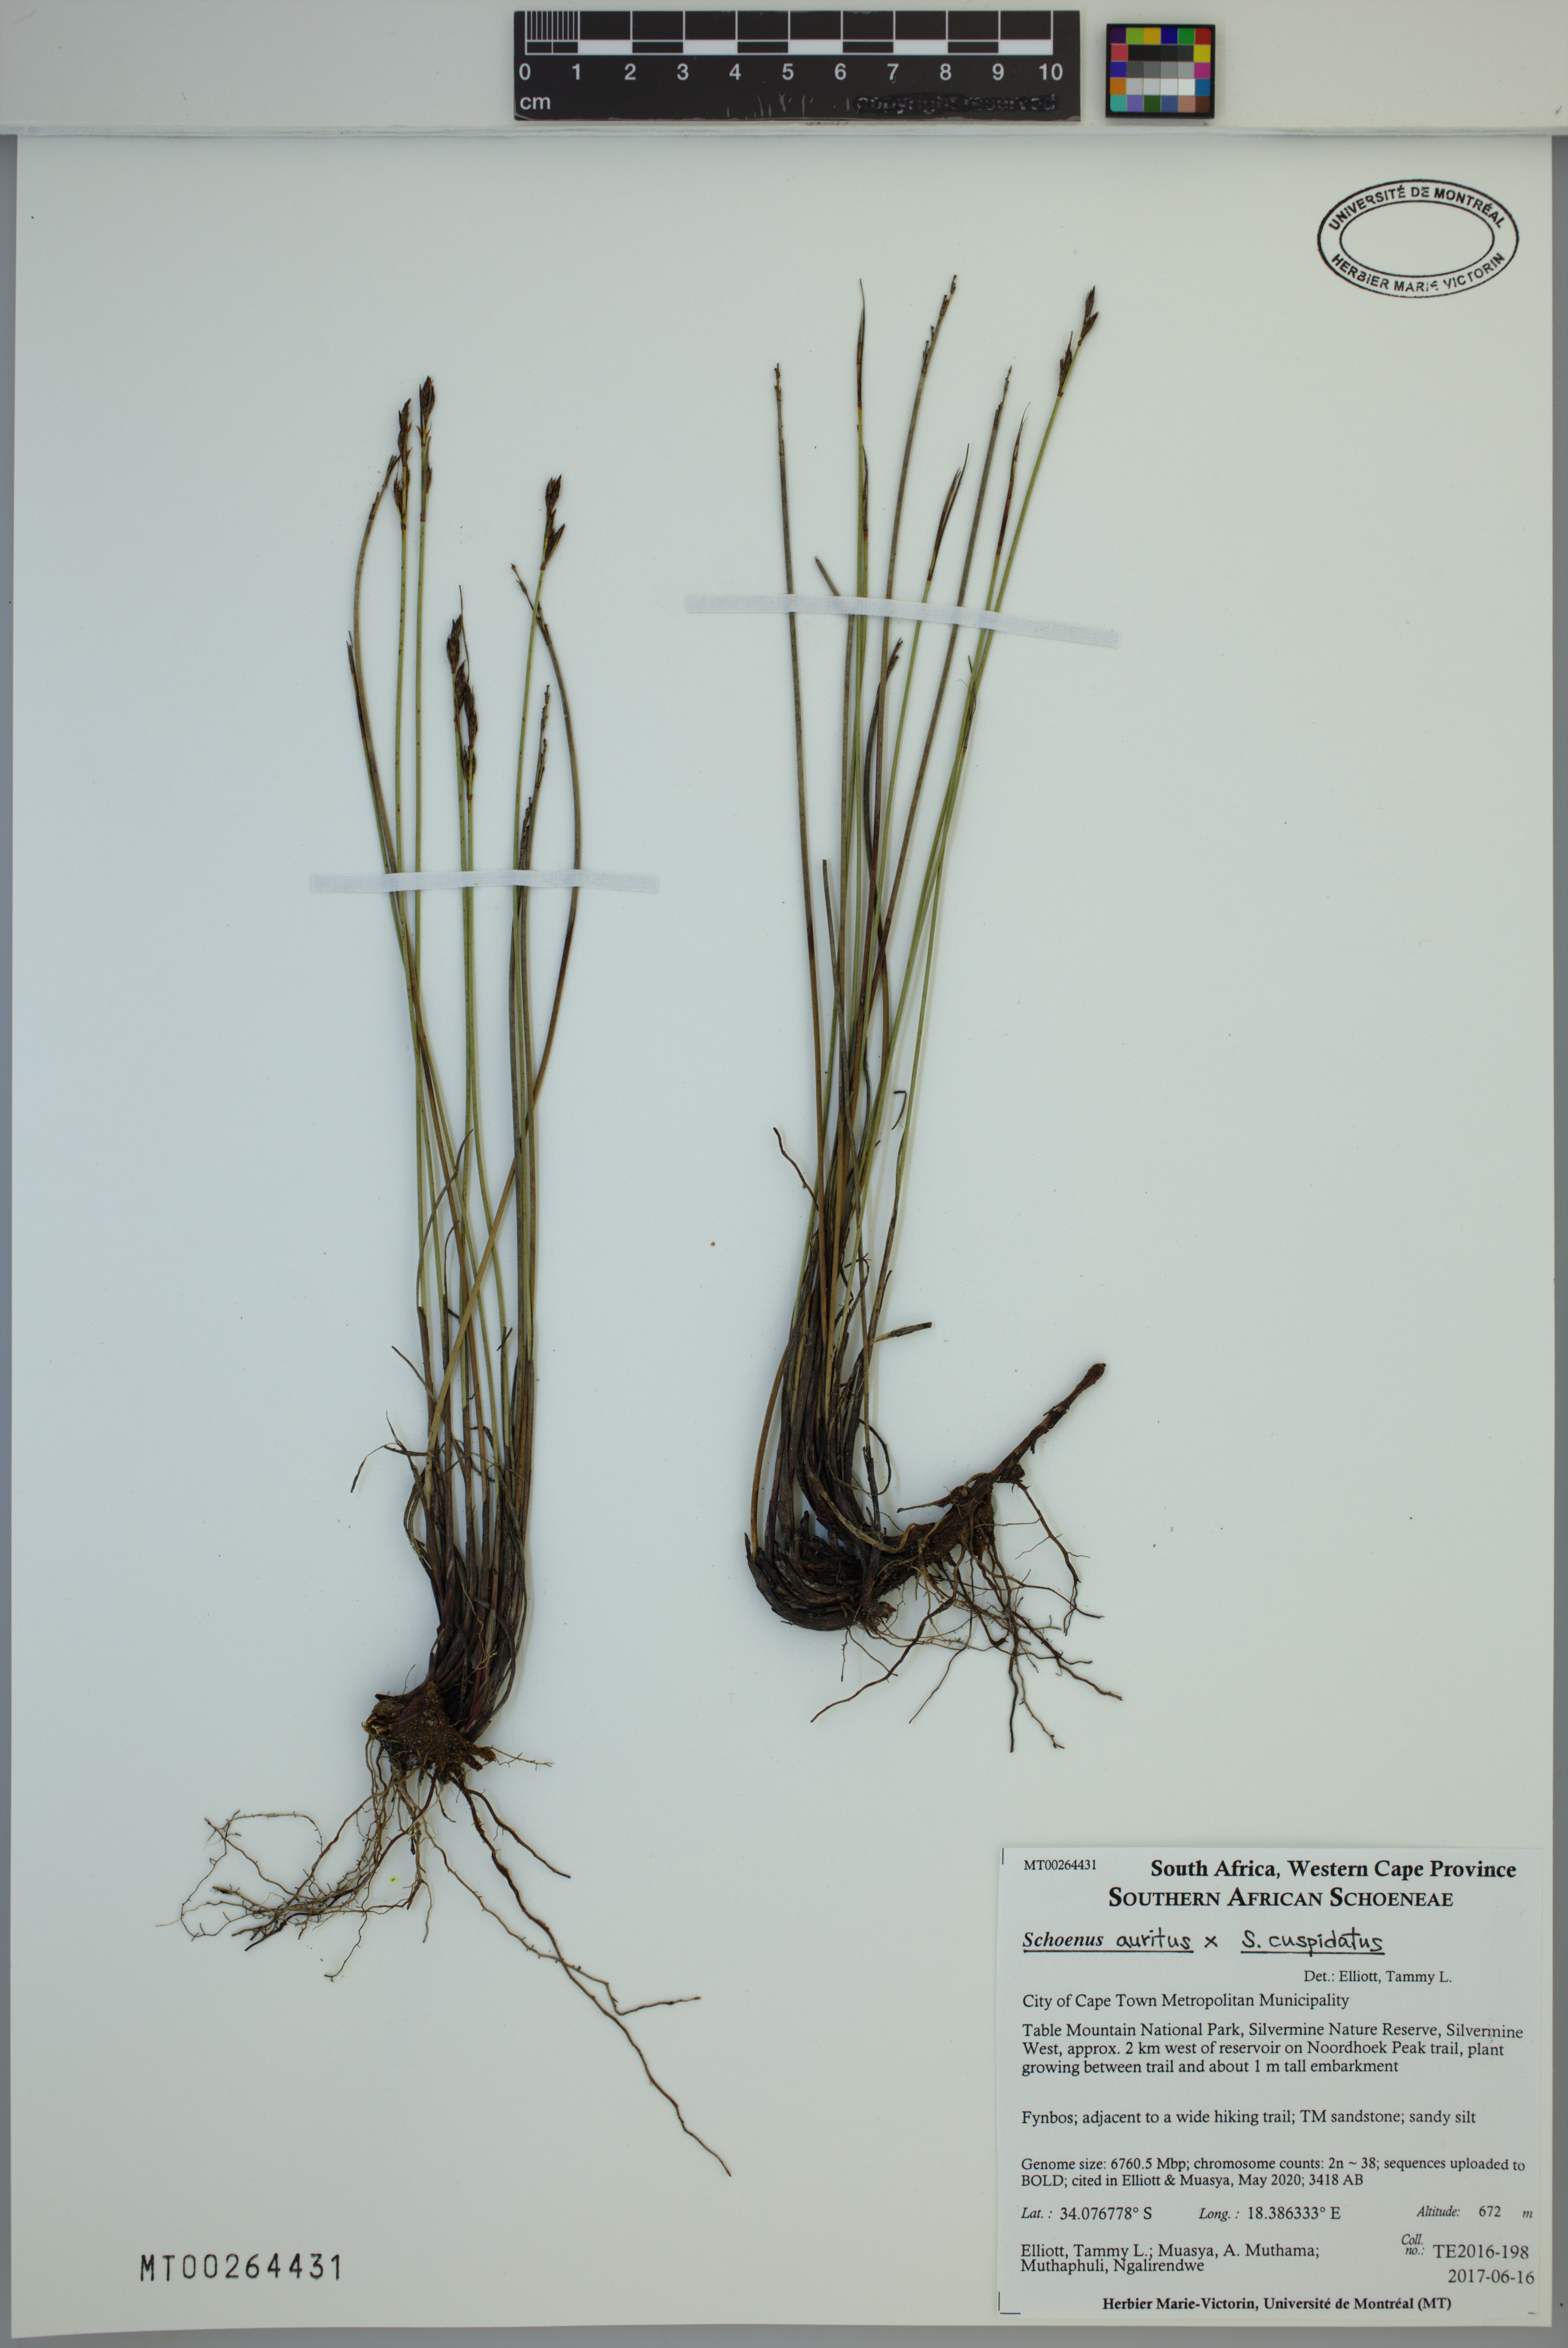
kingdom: Plantae
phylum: Tracheophyta
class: Liliopsida
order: Poales
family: Cyperaceae
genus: Schoenus
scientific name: Schoenus auritus
